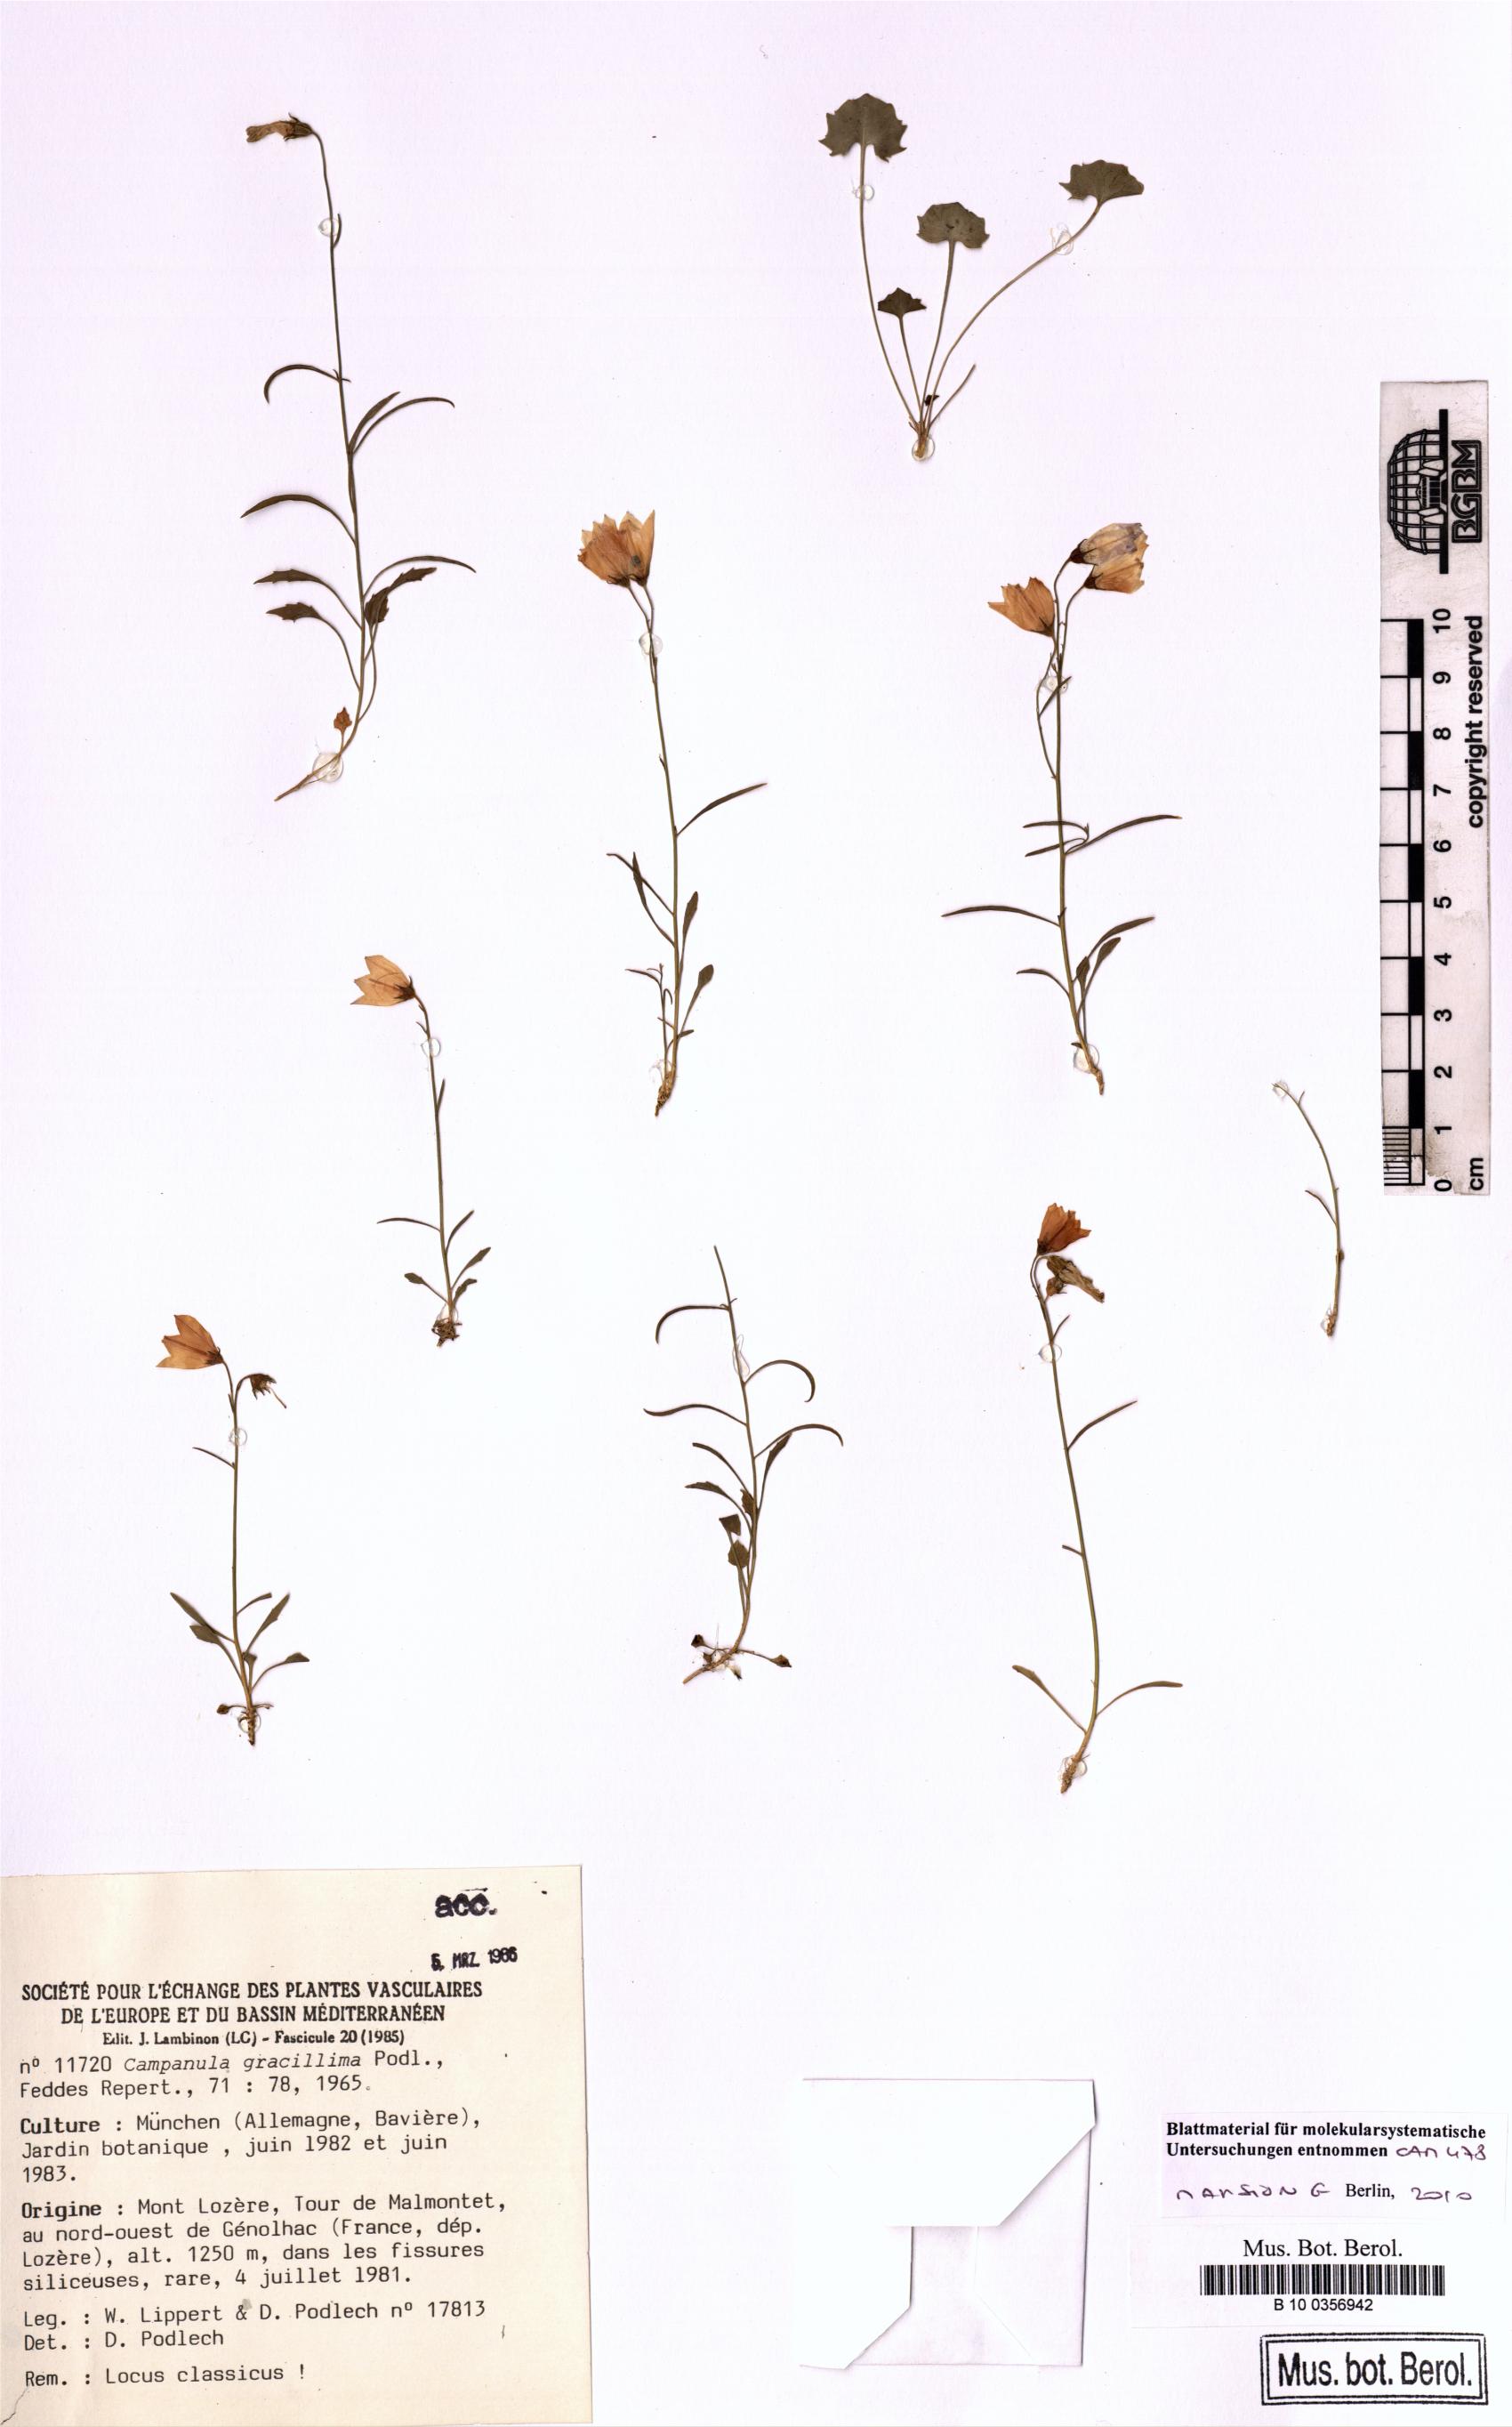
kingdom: Plantae
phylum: Tracheophyta
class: Magnoliopsida
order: Asterales
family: Campanulaceae
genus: Campanula
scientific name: Campanula gracillima
